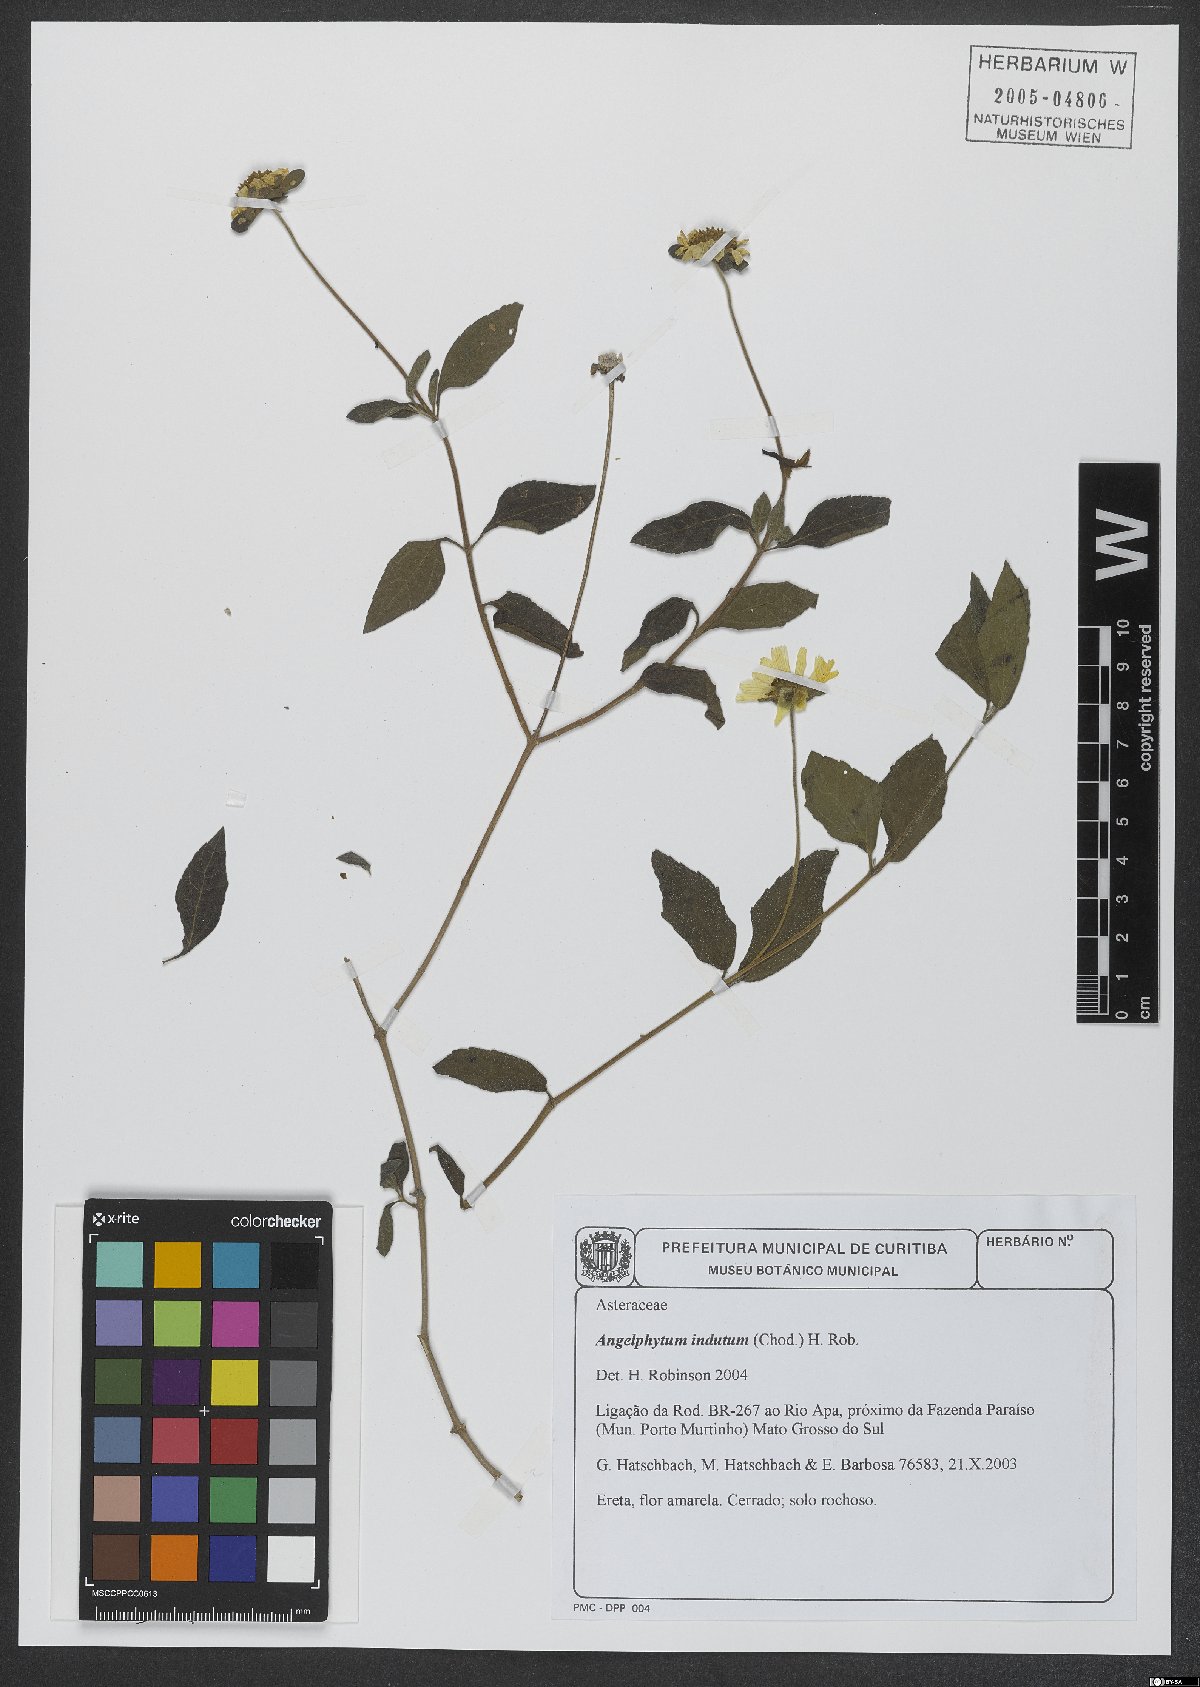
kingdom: Plantae
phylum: Tracheophyta
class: Magnoliopsida
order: Asterales
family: Asteraceae
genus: Dimerostemma
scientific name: Dimerostemma indutum
